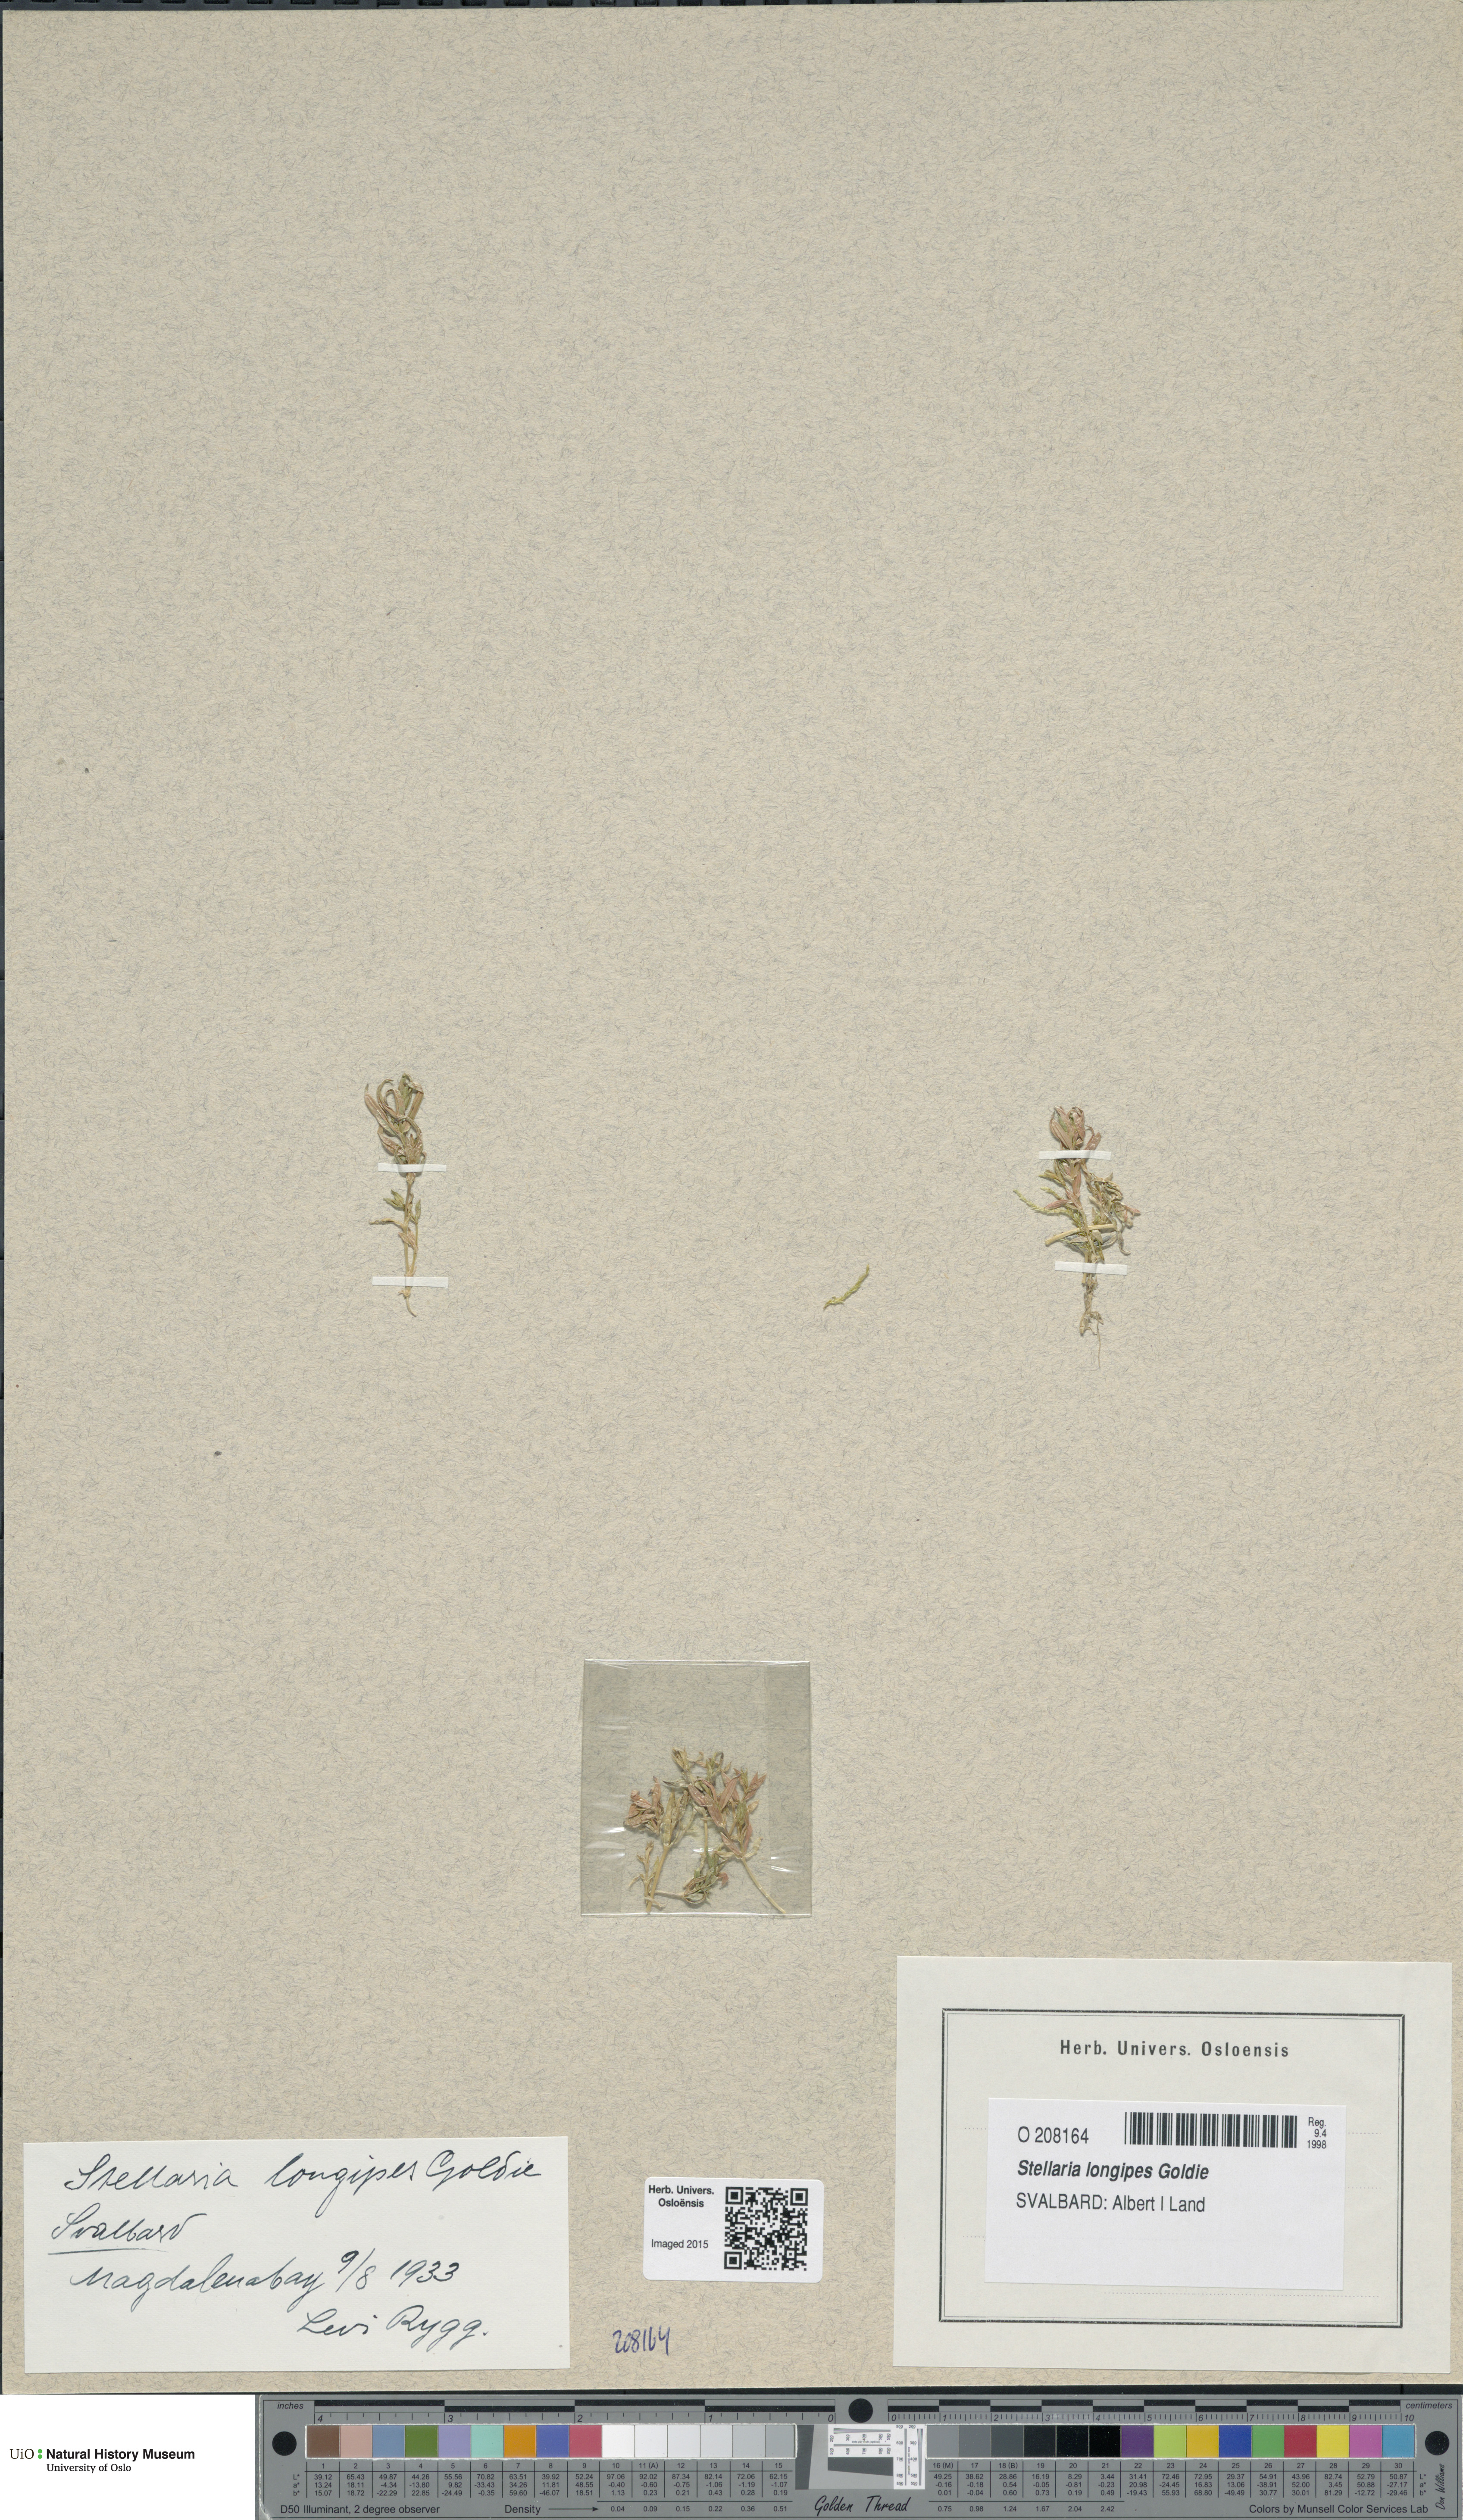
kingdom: Plantae
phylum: Tracheophyta
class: Magnoliopsida
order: Caryophyllales
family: Caryophyllaceae
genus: Stellaria
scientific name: Stellaria longipes
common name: Goldie's starwort
